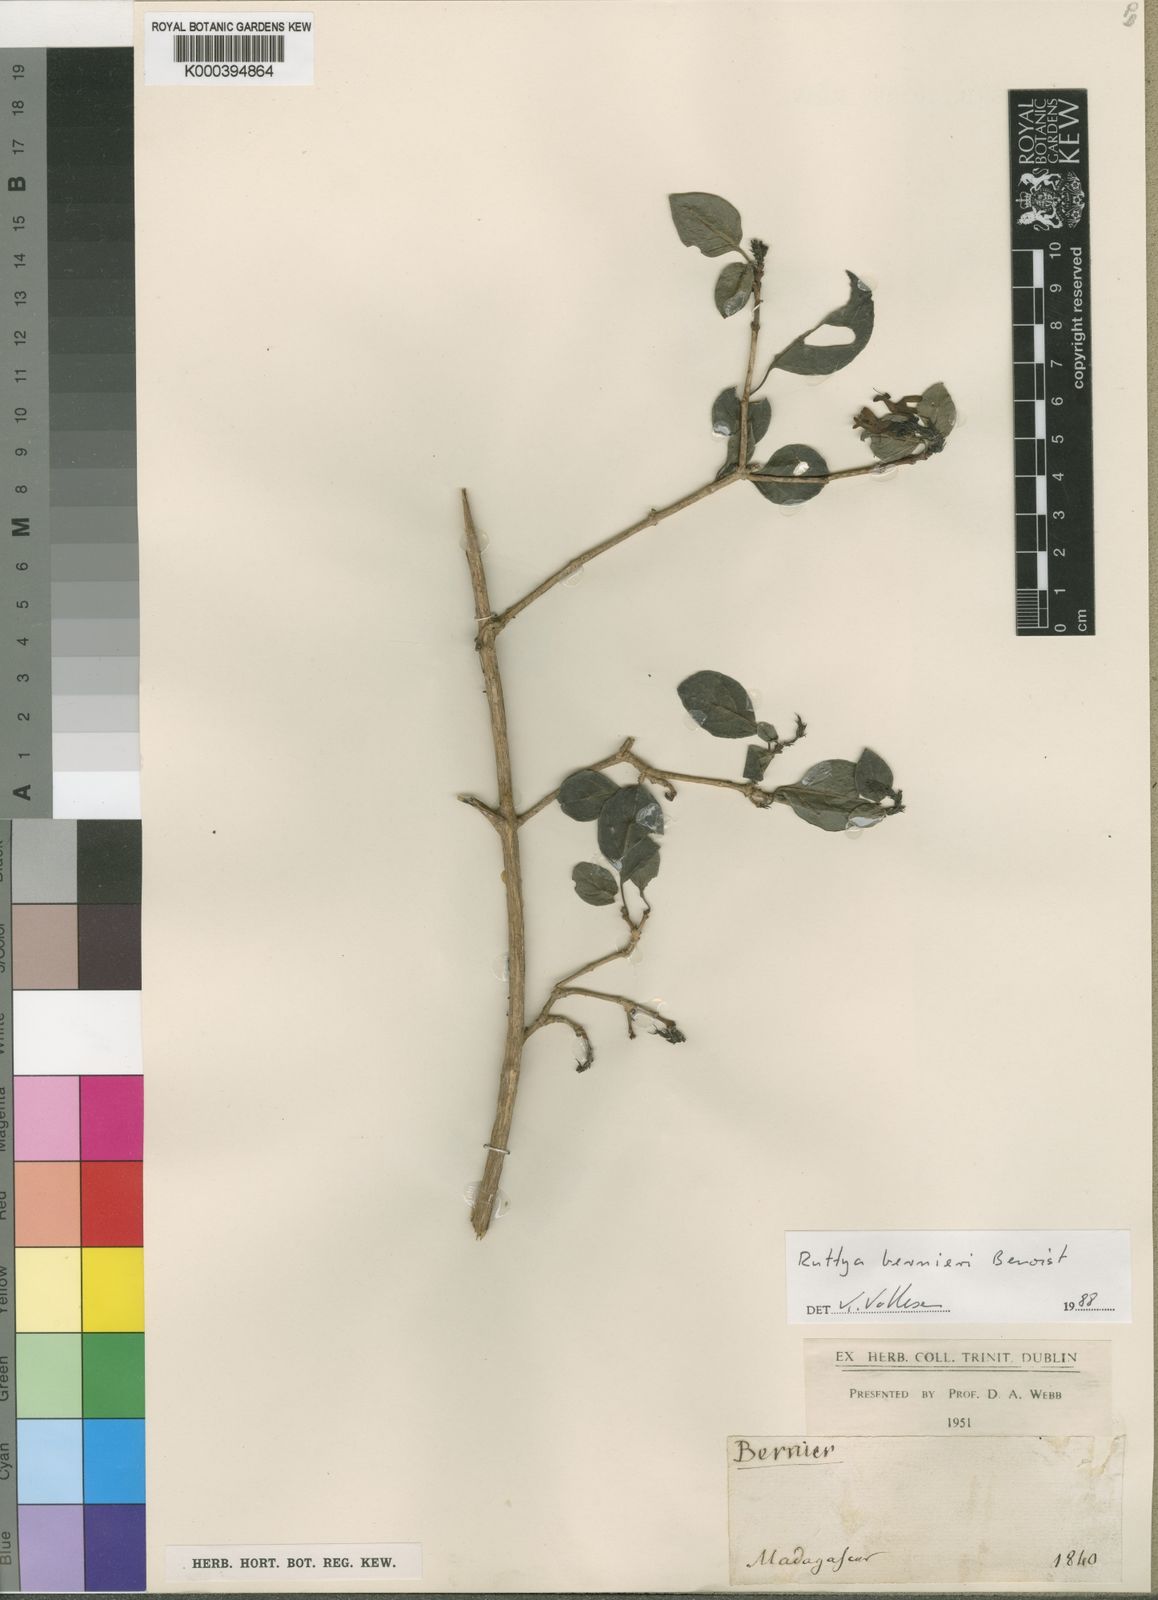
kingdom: Plantae
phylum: Tracheophyta
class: Magnoliopsida
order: Lamiales
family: Acanthaceae
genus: Ruttya
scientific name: Ruttya bernieri
